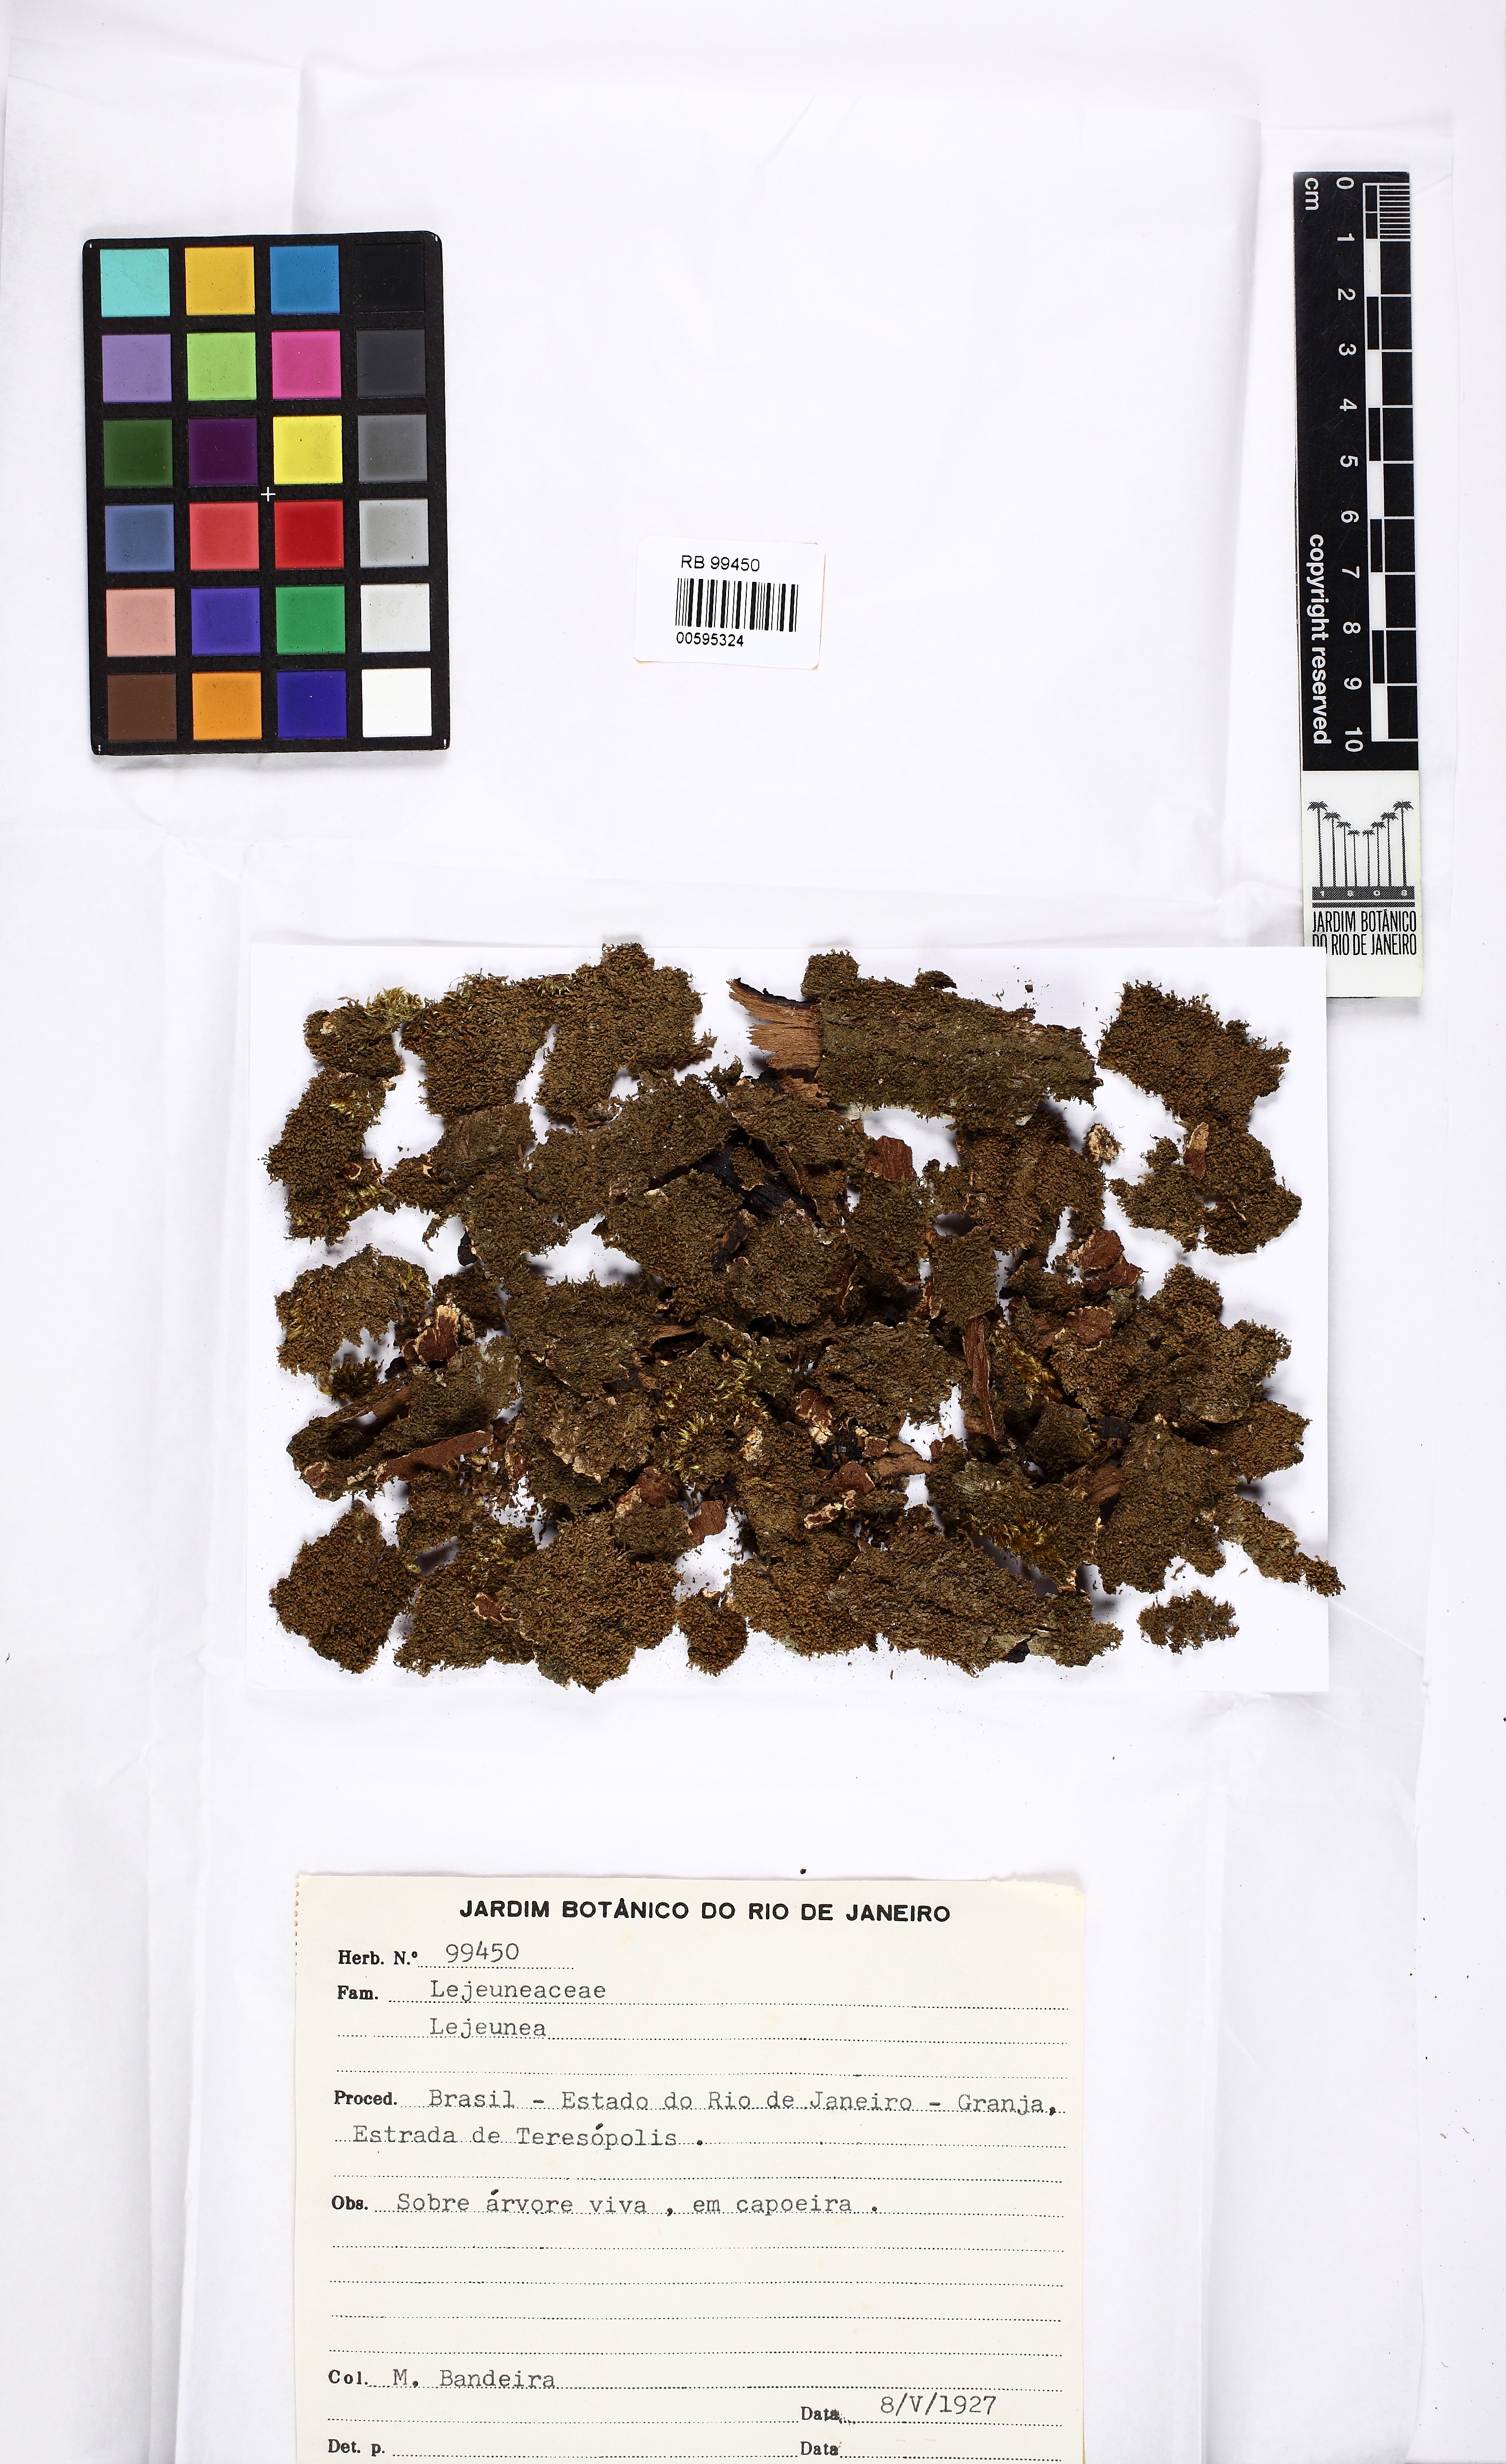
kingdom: Plantae
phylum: Marchantiophyta
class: Jungermanniopsida
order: Porellales
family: Lejeuneaceae
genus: Lejeunea
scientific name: Lejeunea
